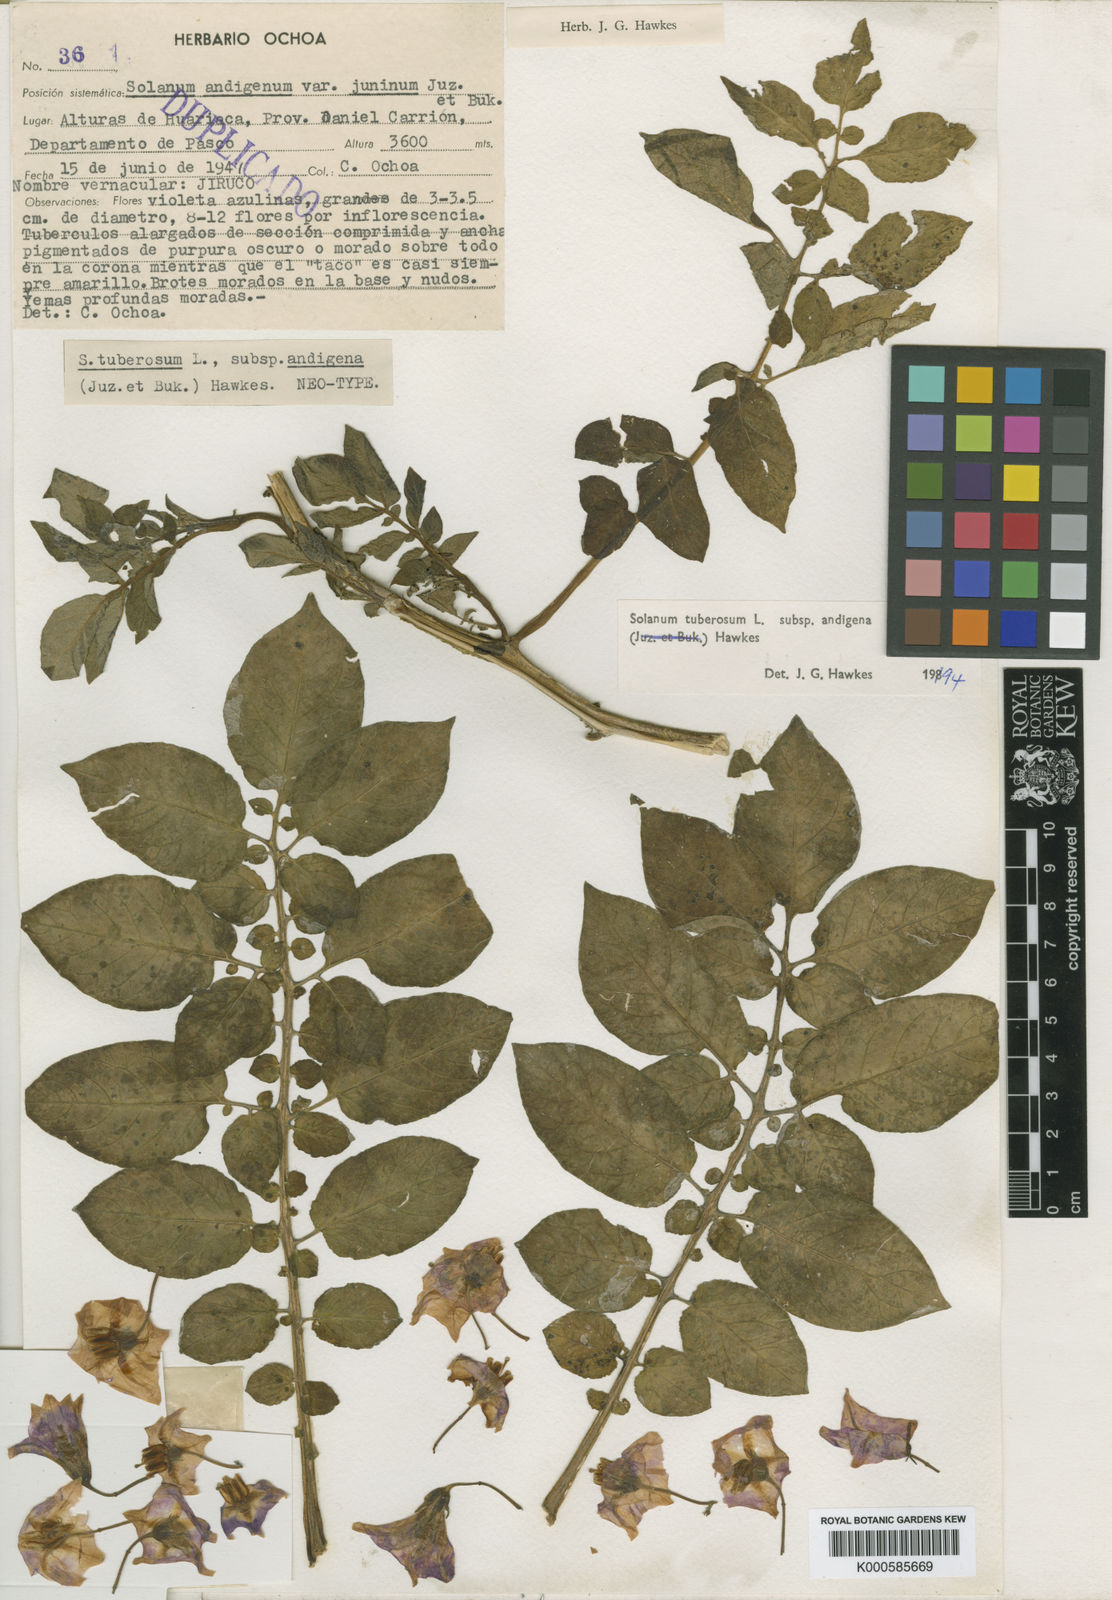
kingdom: Plantae
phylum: Tracheophyta
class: Magnoliopsida
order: Solanales
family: Solanaceae
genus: Solanum
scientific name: Solanum tuberosum
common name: Potato
